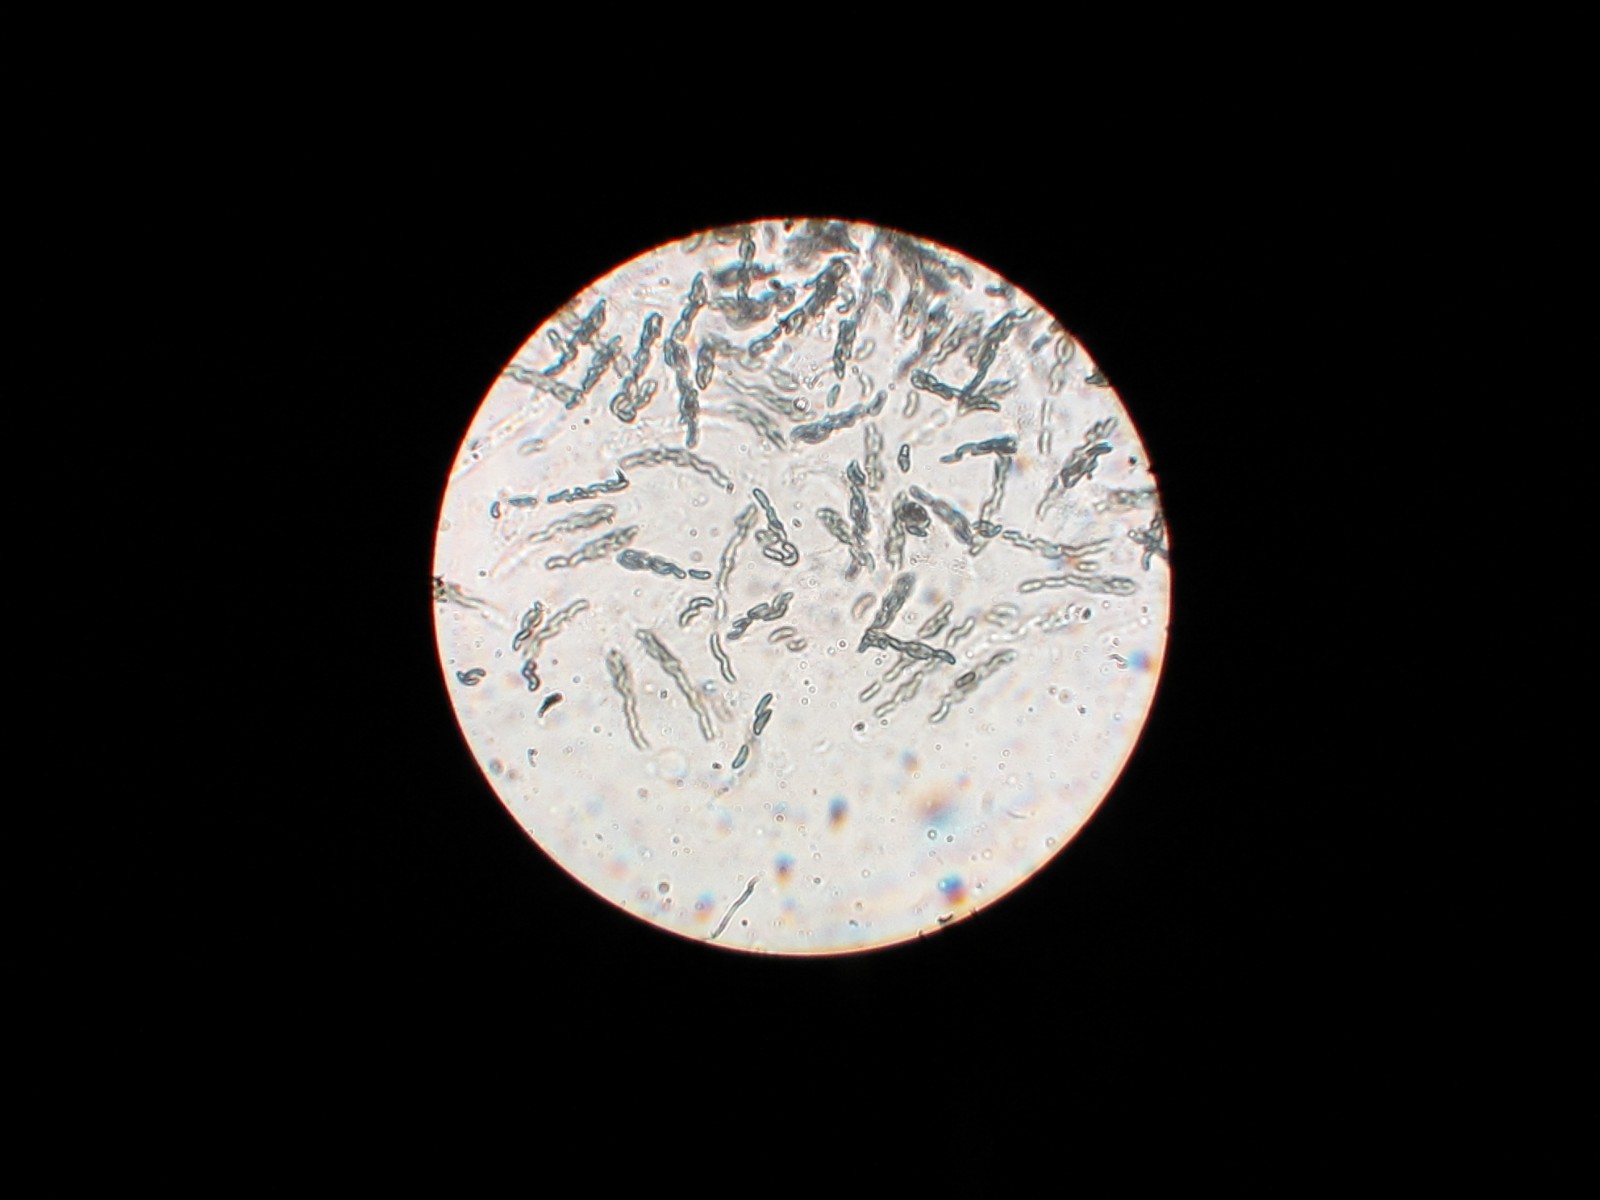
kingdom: Fungi
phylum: Ascomycota
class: Sordariomycetes
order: Boliniales
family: Boliniaceae
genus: Ceratostomella
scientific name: Ceratostomella rostrata
